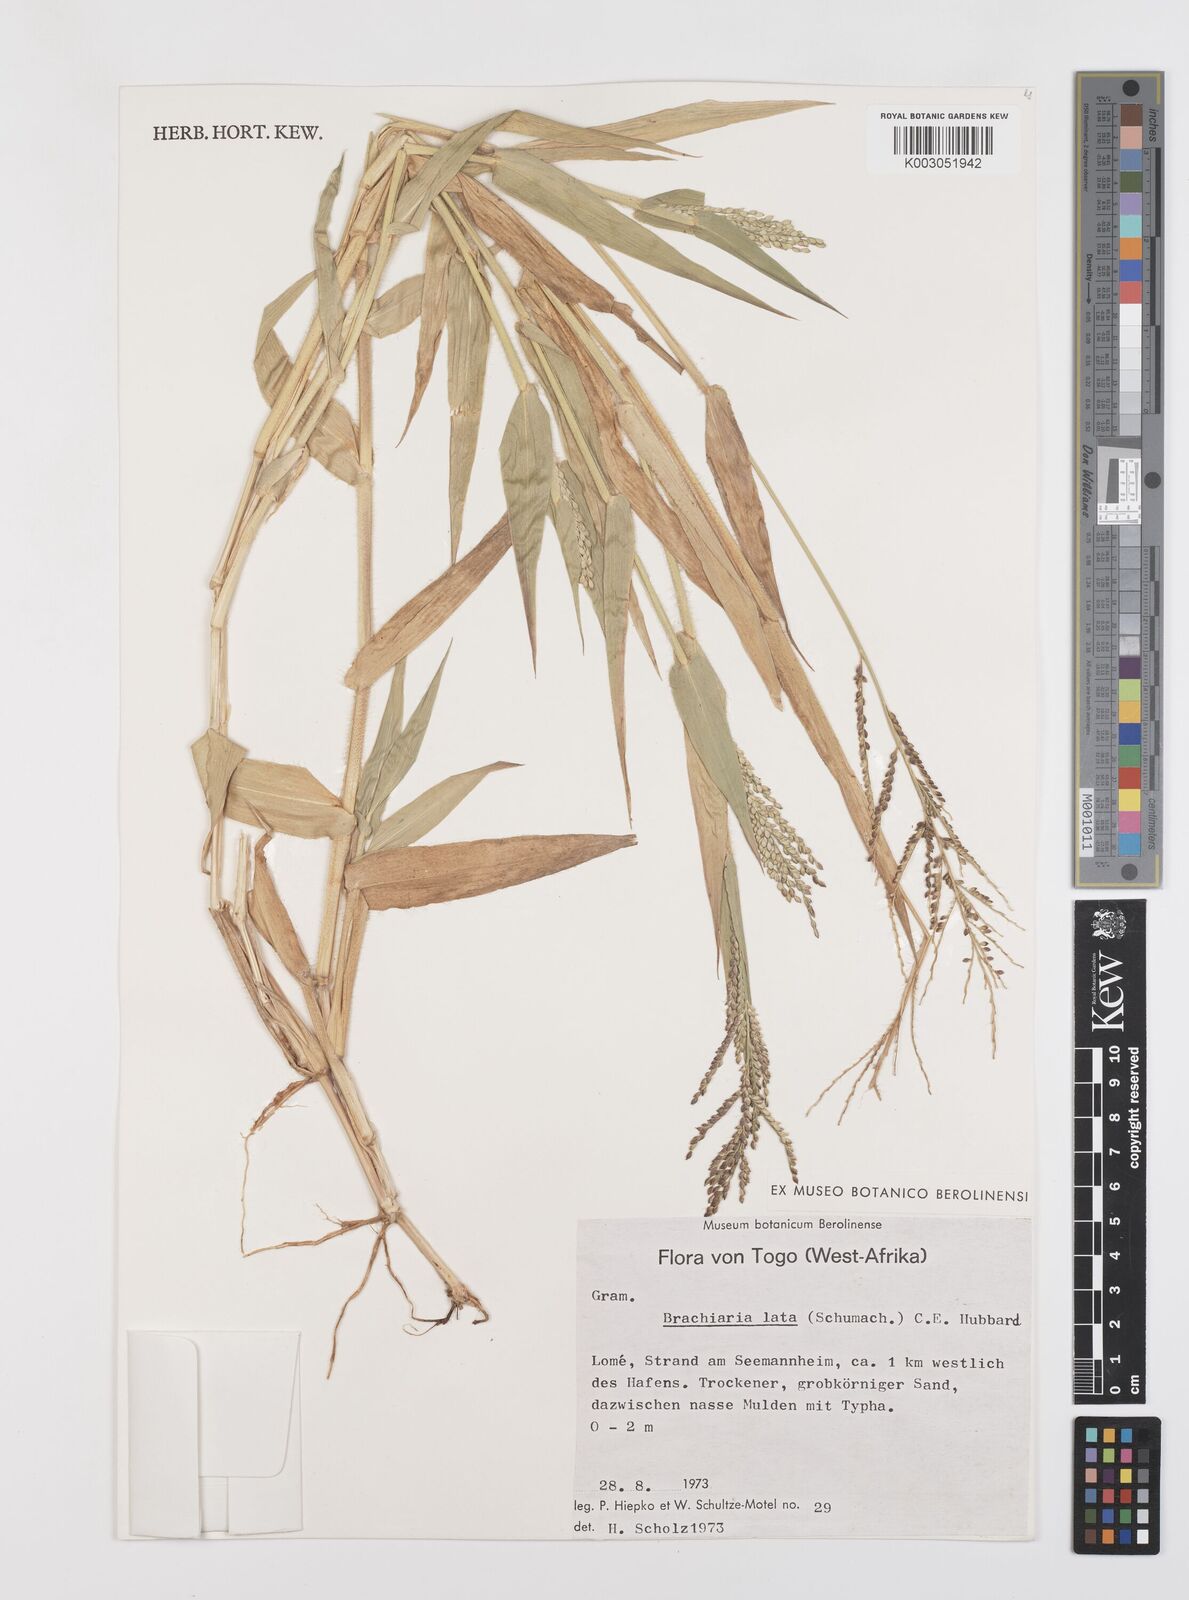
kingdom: Plantae
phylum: Tracheophyta
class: Liliopsida
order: Poales
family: Poaceae
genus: Urochloa
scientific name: Urochloa lata
